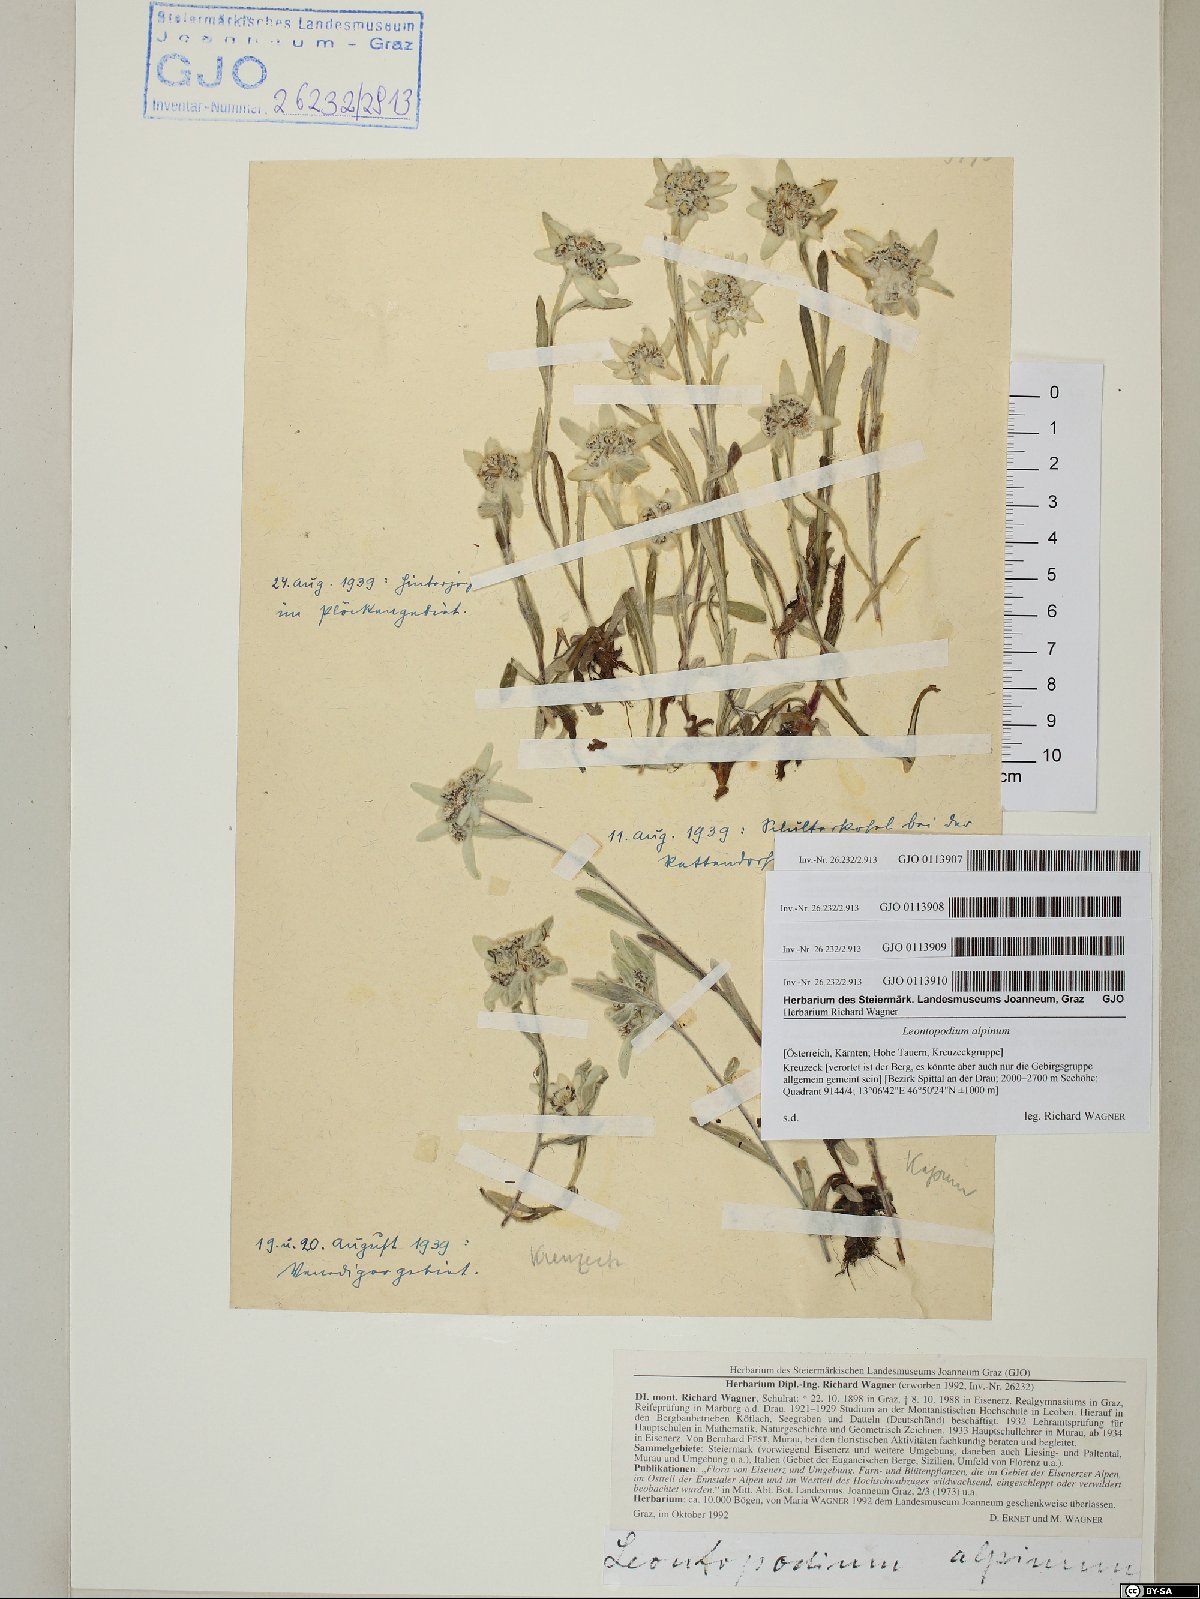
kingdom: Plantae
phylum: Tracheophyta
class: Magnoliopsida
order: Asterales
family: Asteraceae
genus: Leontopodium
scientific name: Leontopodium nivale
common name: Edelweiss
